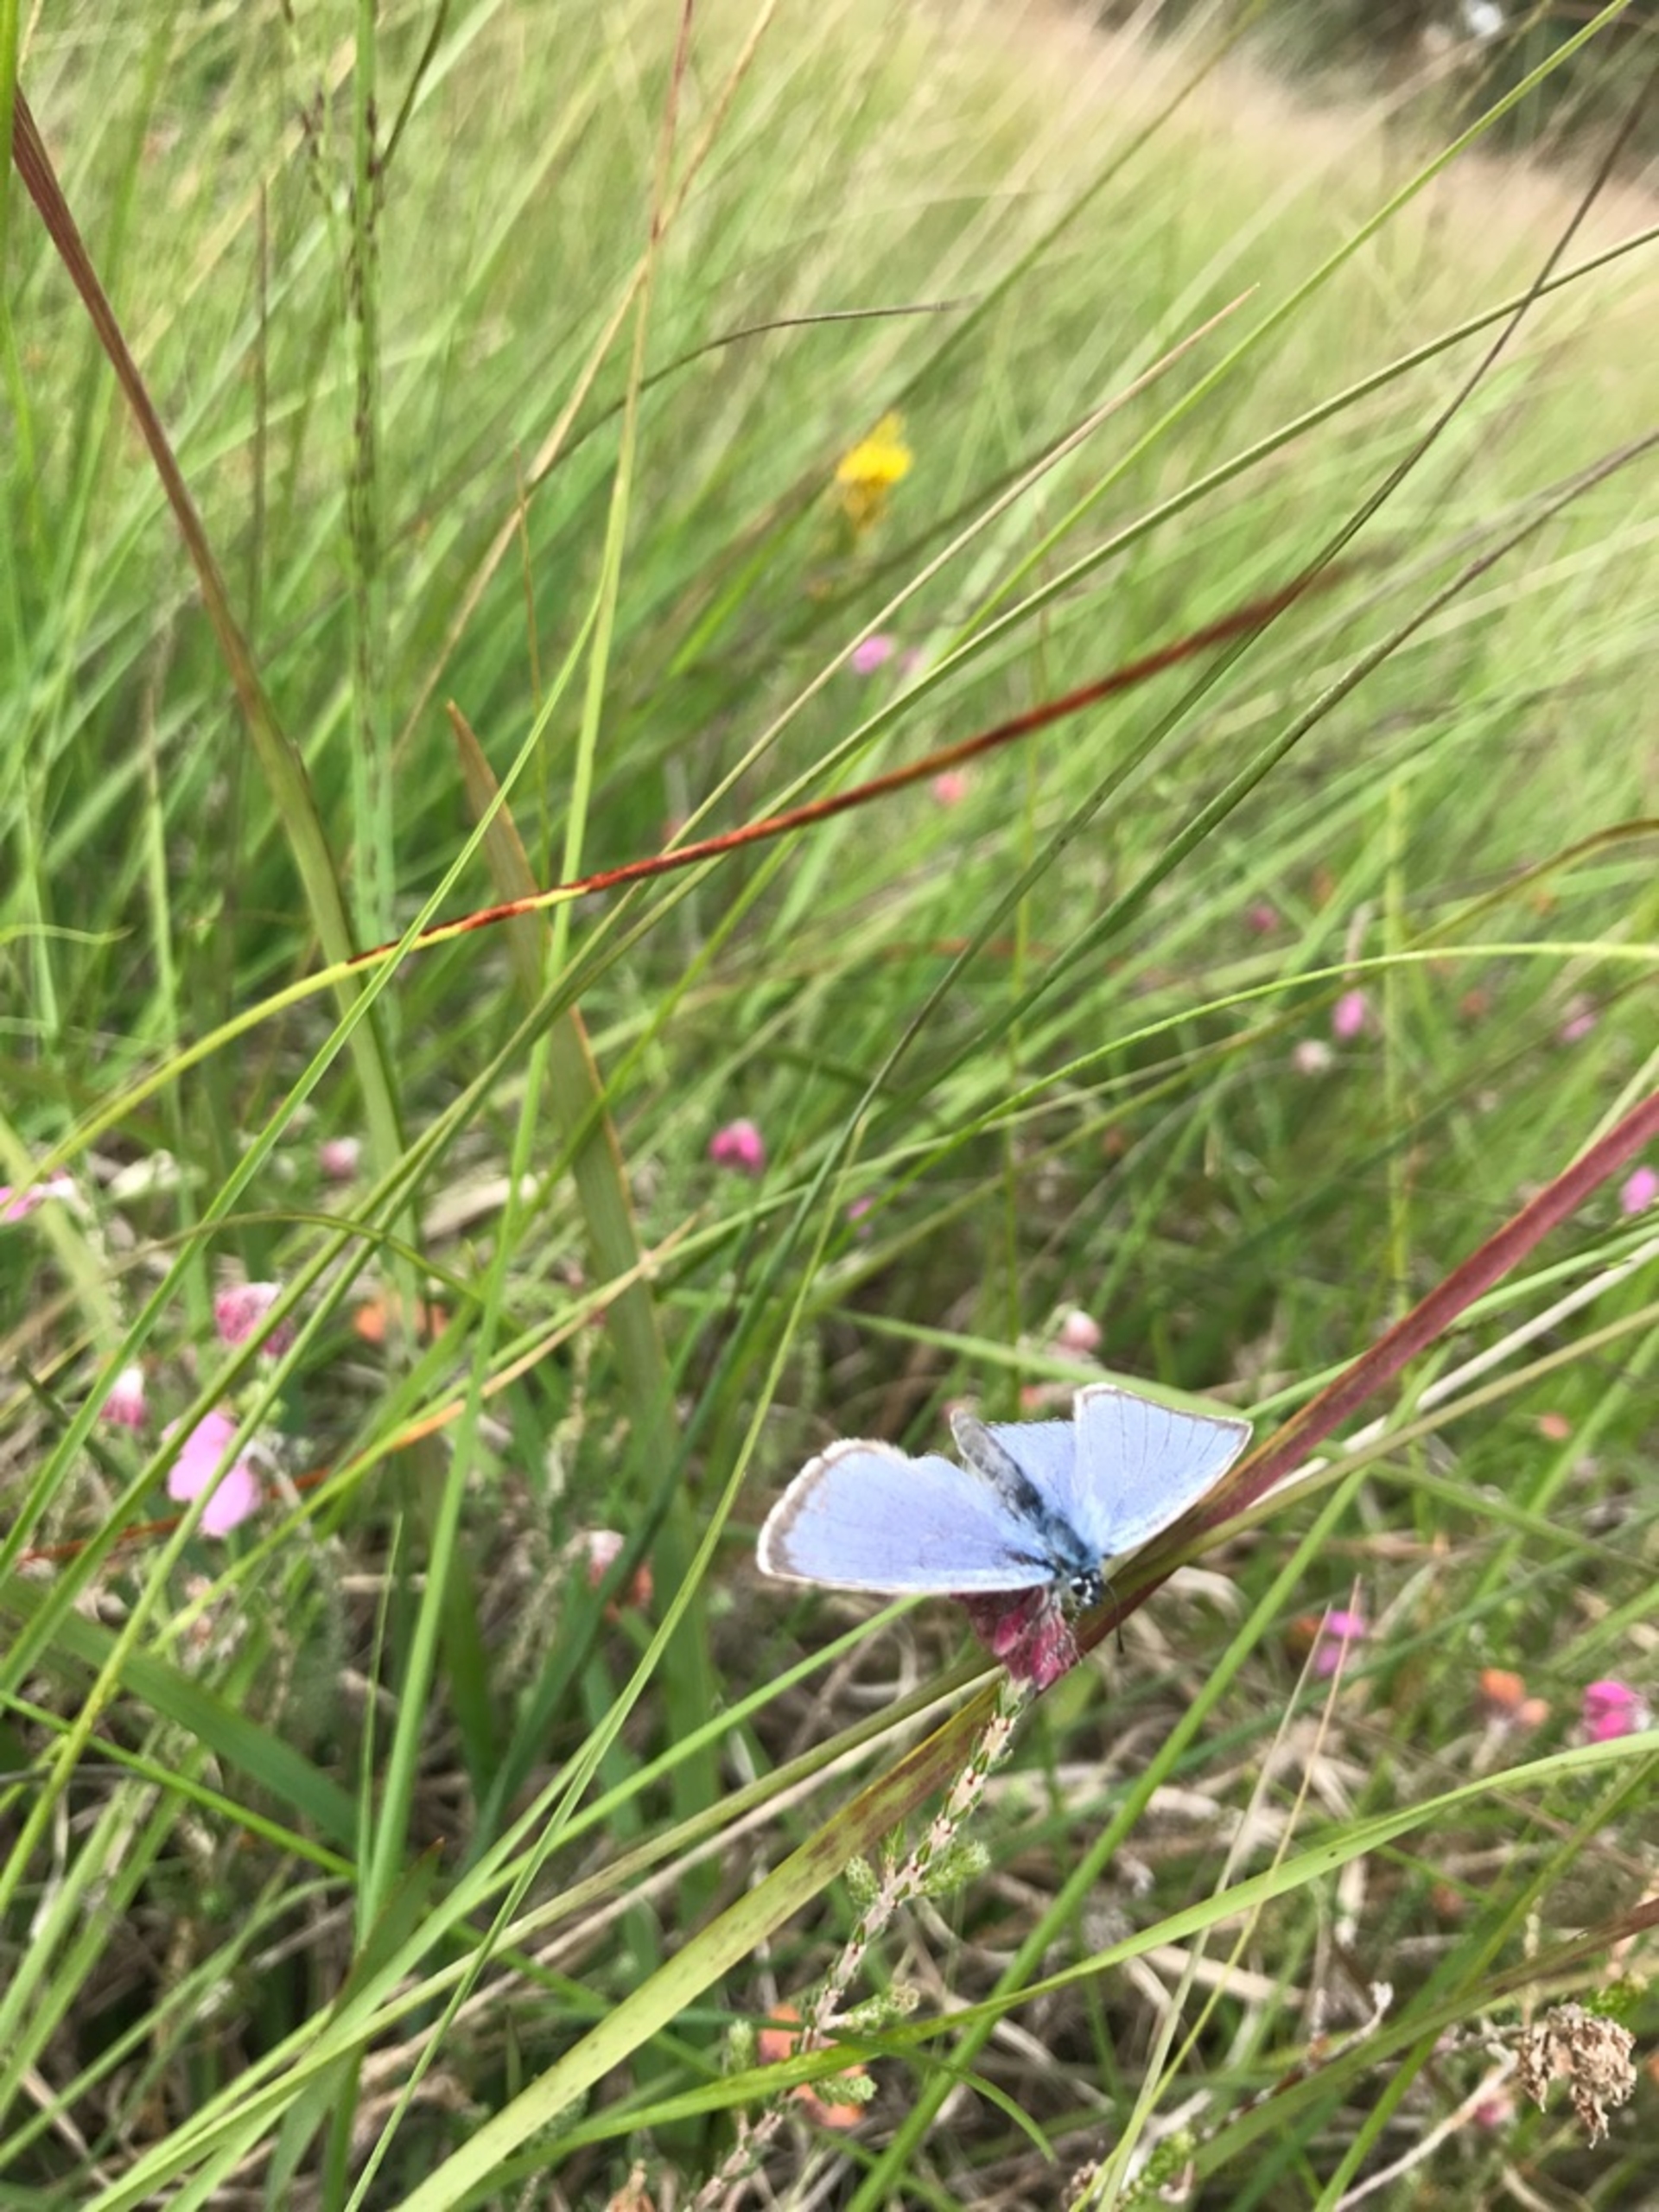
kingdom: Animalia
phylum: Arthropoda
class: Insecta
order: Lepidoptera
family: Lycaenidae
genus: Maculinea
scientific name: Maculinea alcon
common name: Ensianblåfugl
